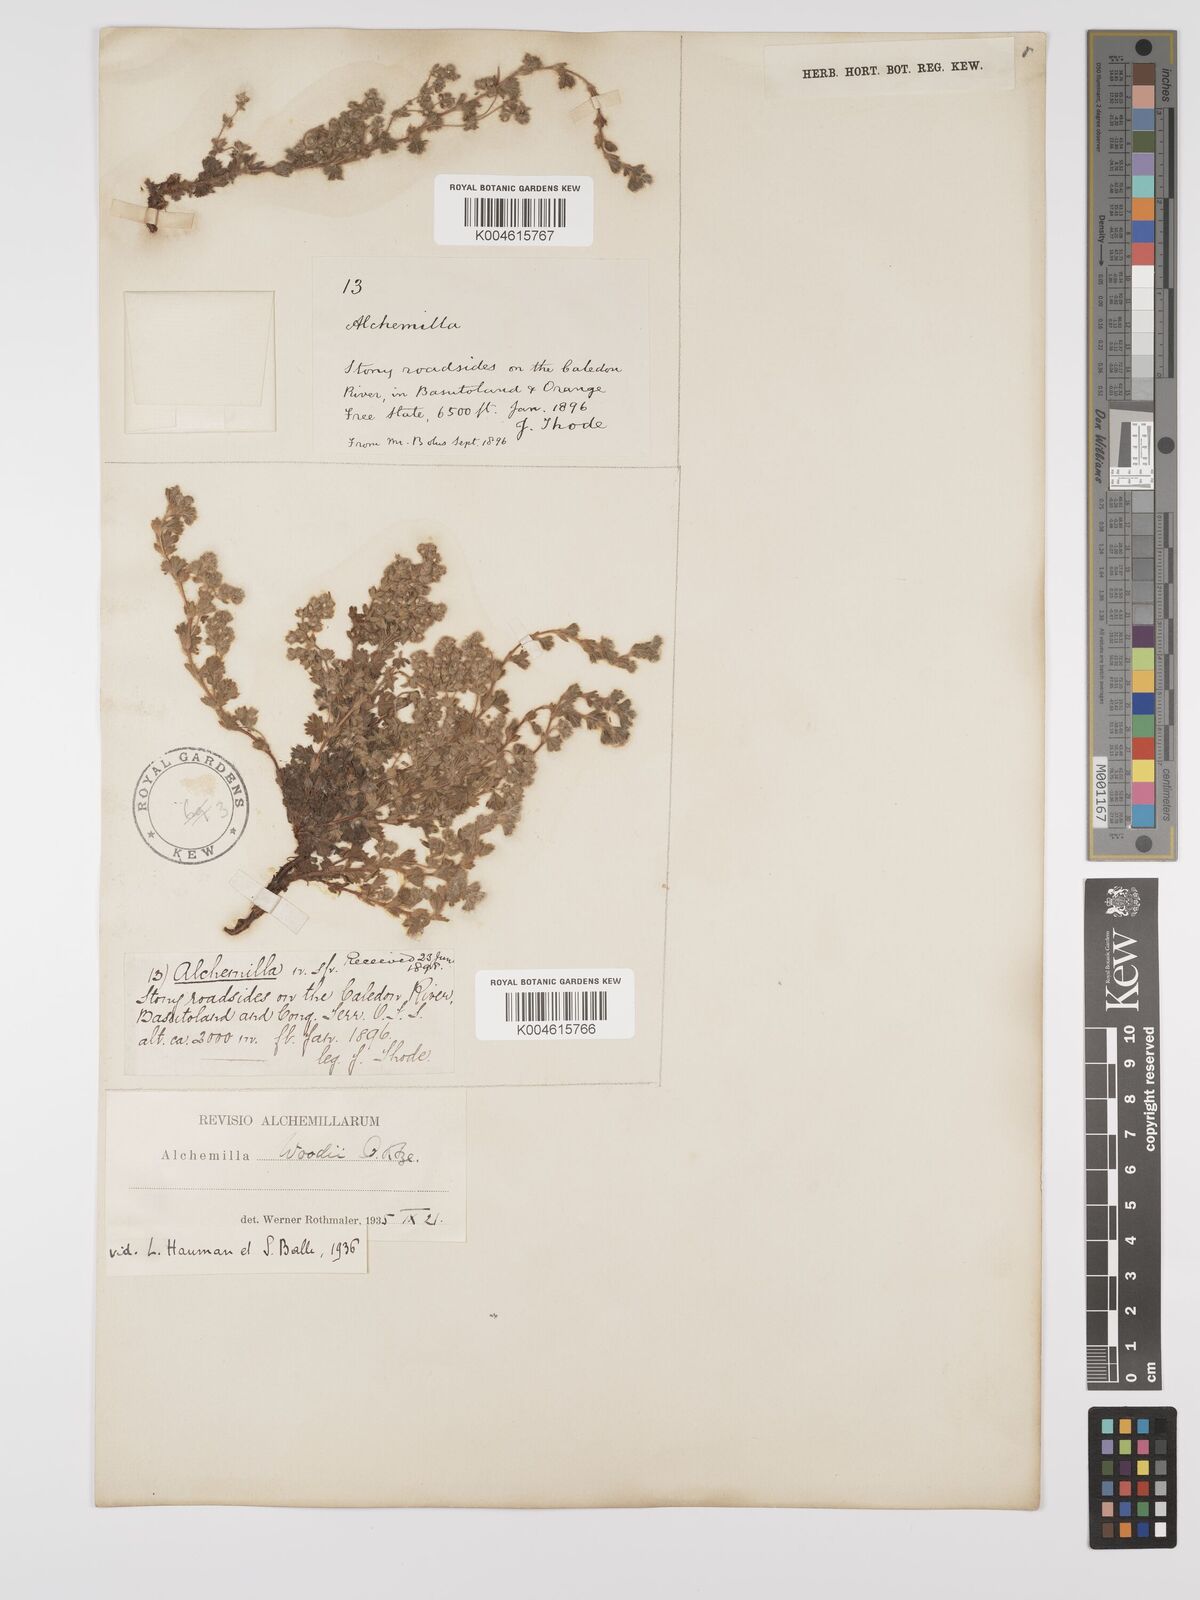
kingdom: Plantae
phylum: Tracheophyta
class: Magnoliopsida
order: Rosales
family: Rosaceae
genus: Alchemilla
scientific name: Alchemilla woodii
